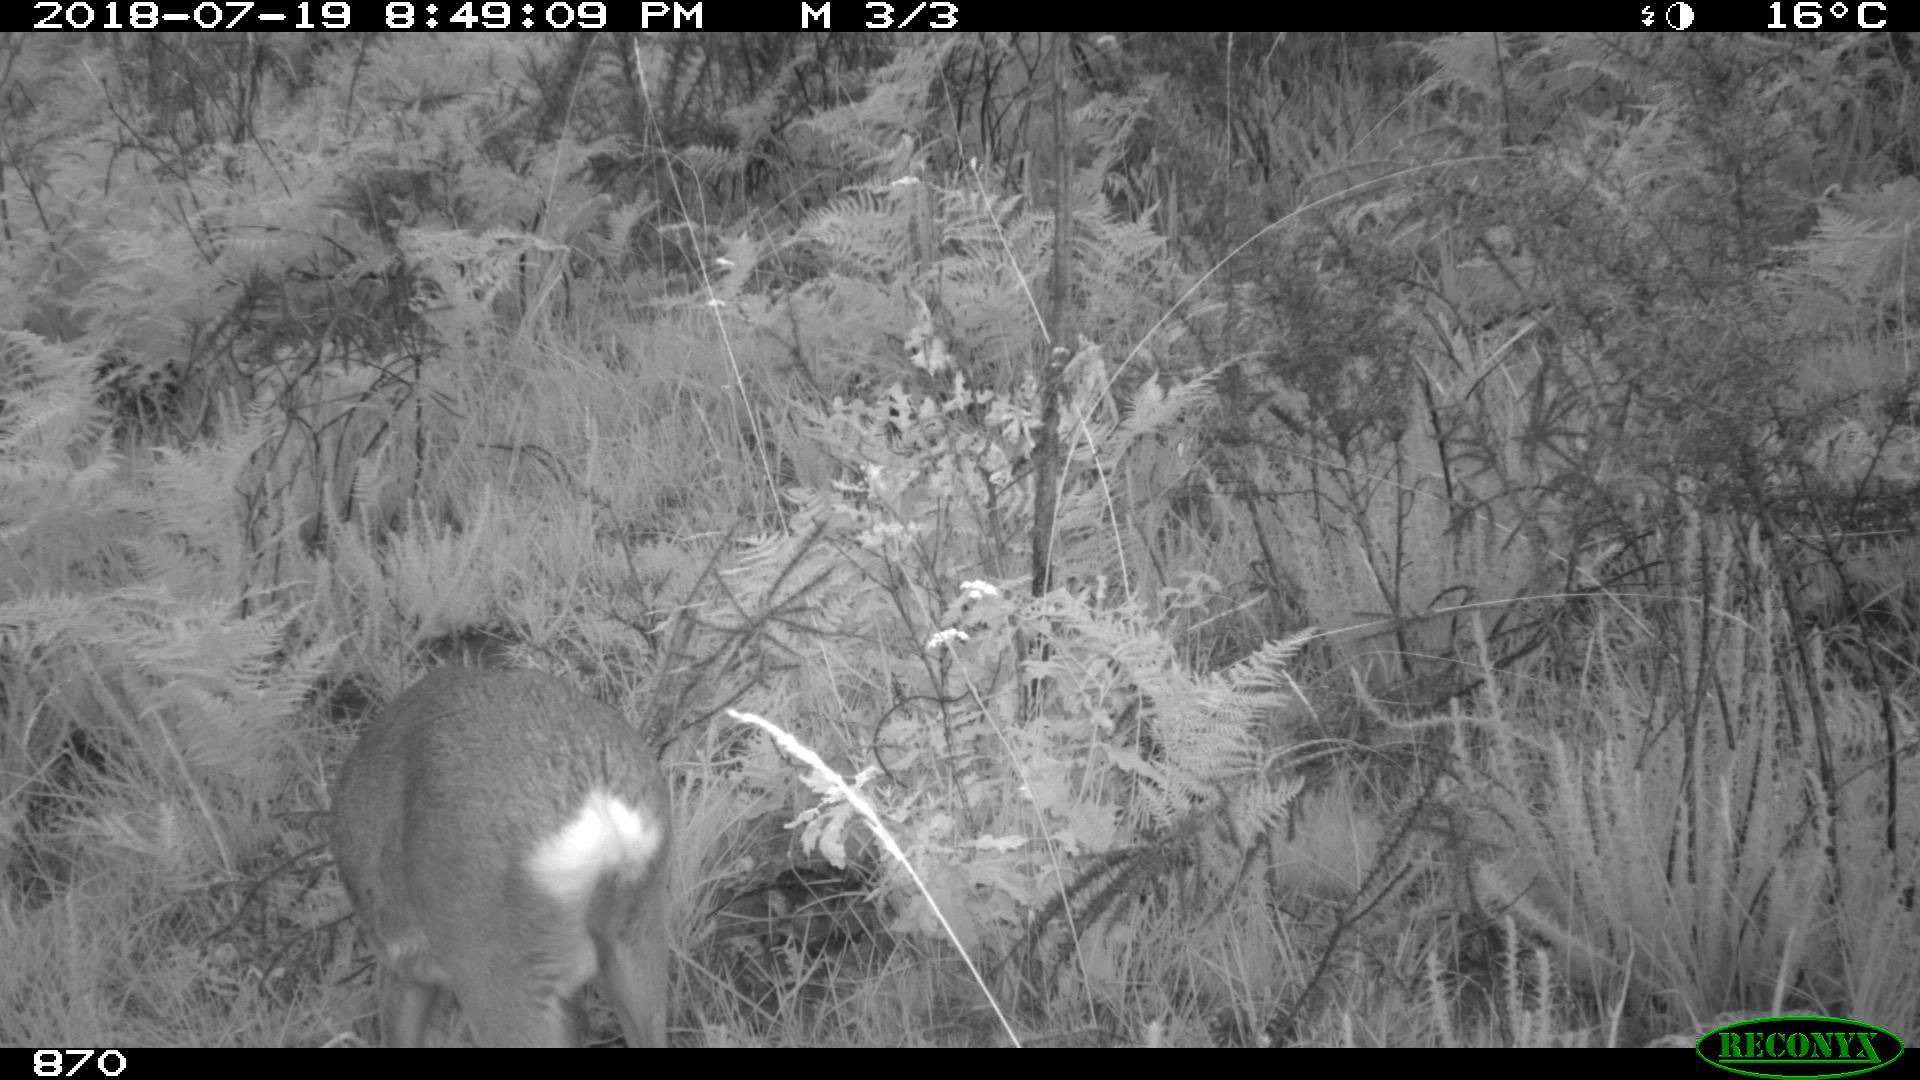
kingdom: Animalia
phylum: Chordata
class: Mammalia
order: Artiodactyla
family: Cervidae
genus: Capreolus
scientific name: Capreolus capreolus
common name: Western roe deer
